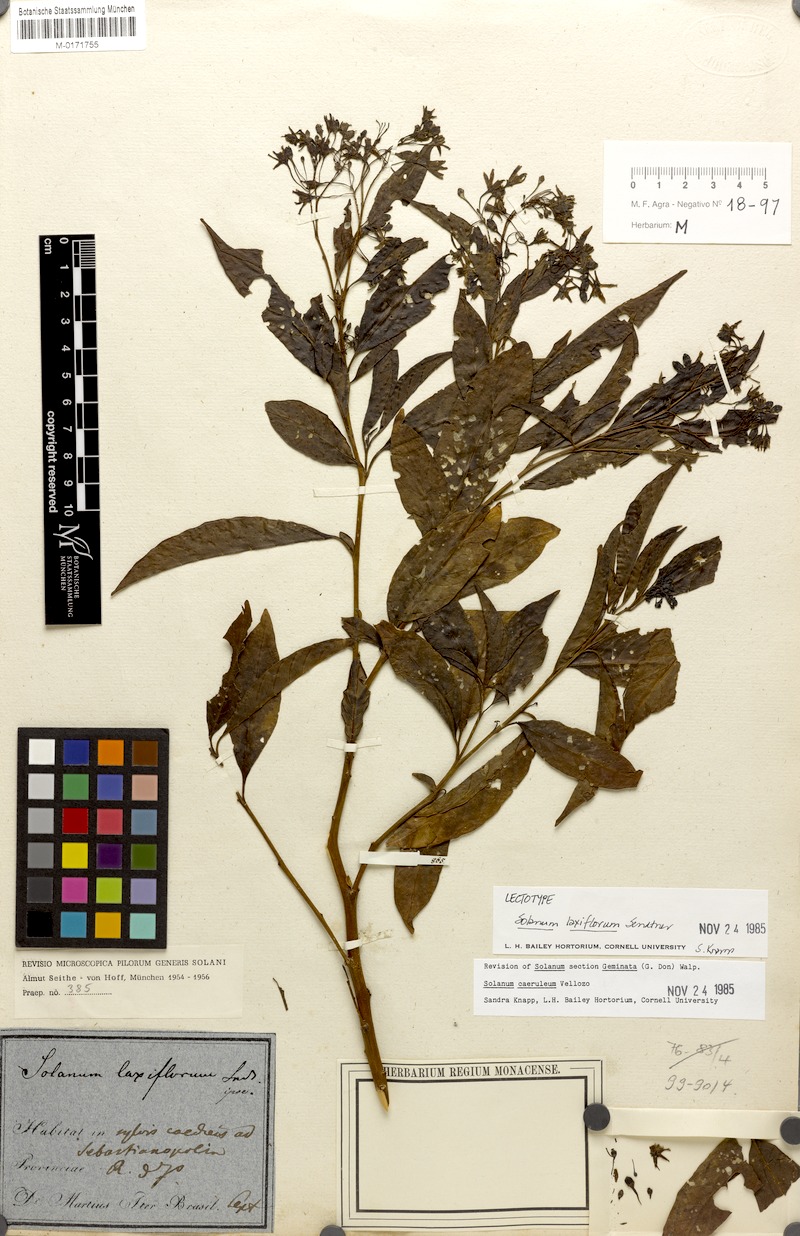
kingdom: Plantae
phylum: Tracheophyta
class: Magnoliopsida
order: Solanales
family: Solanaceae
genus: Solanum
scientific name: Solanum campaniforme
